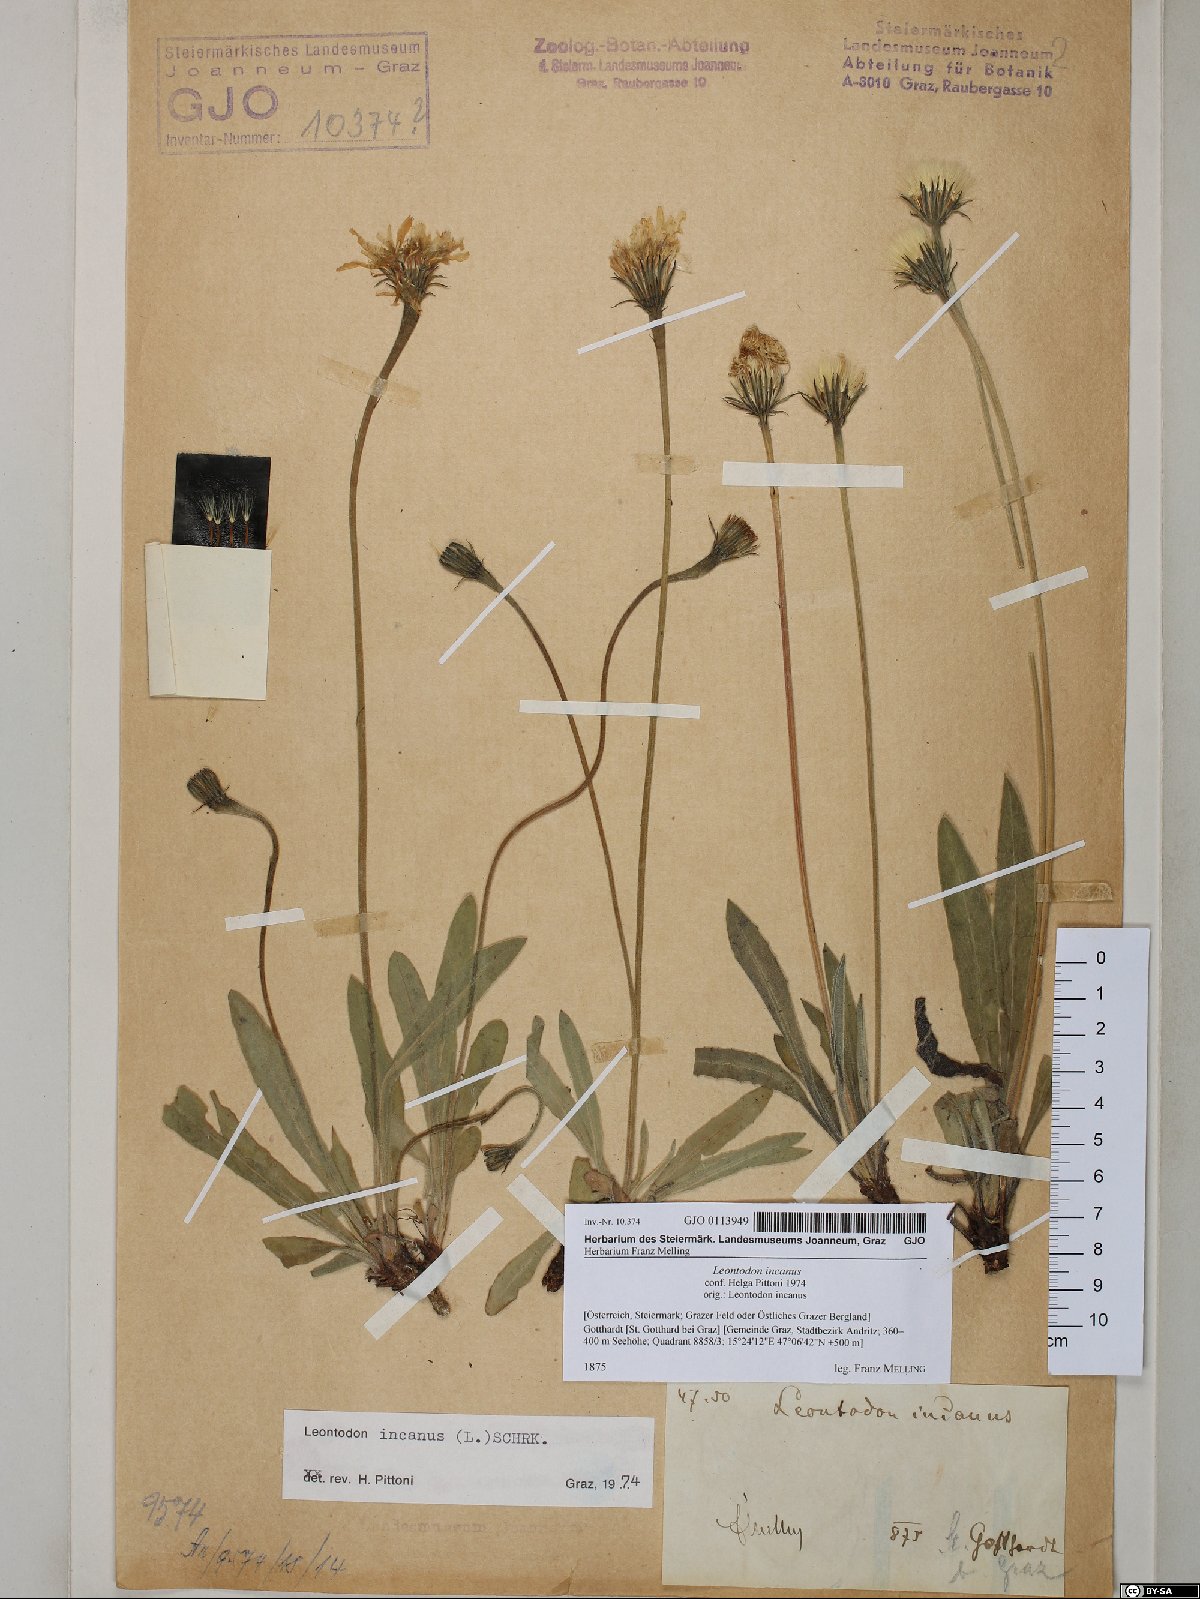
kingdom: Plantae
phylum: Tracheophyta
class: Magnoliopsida
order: Asterales
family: Asteraceae
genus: Leontodon
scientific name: Leontodon incanus
